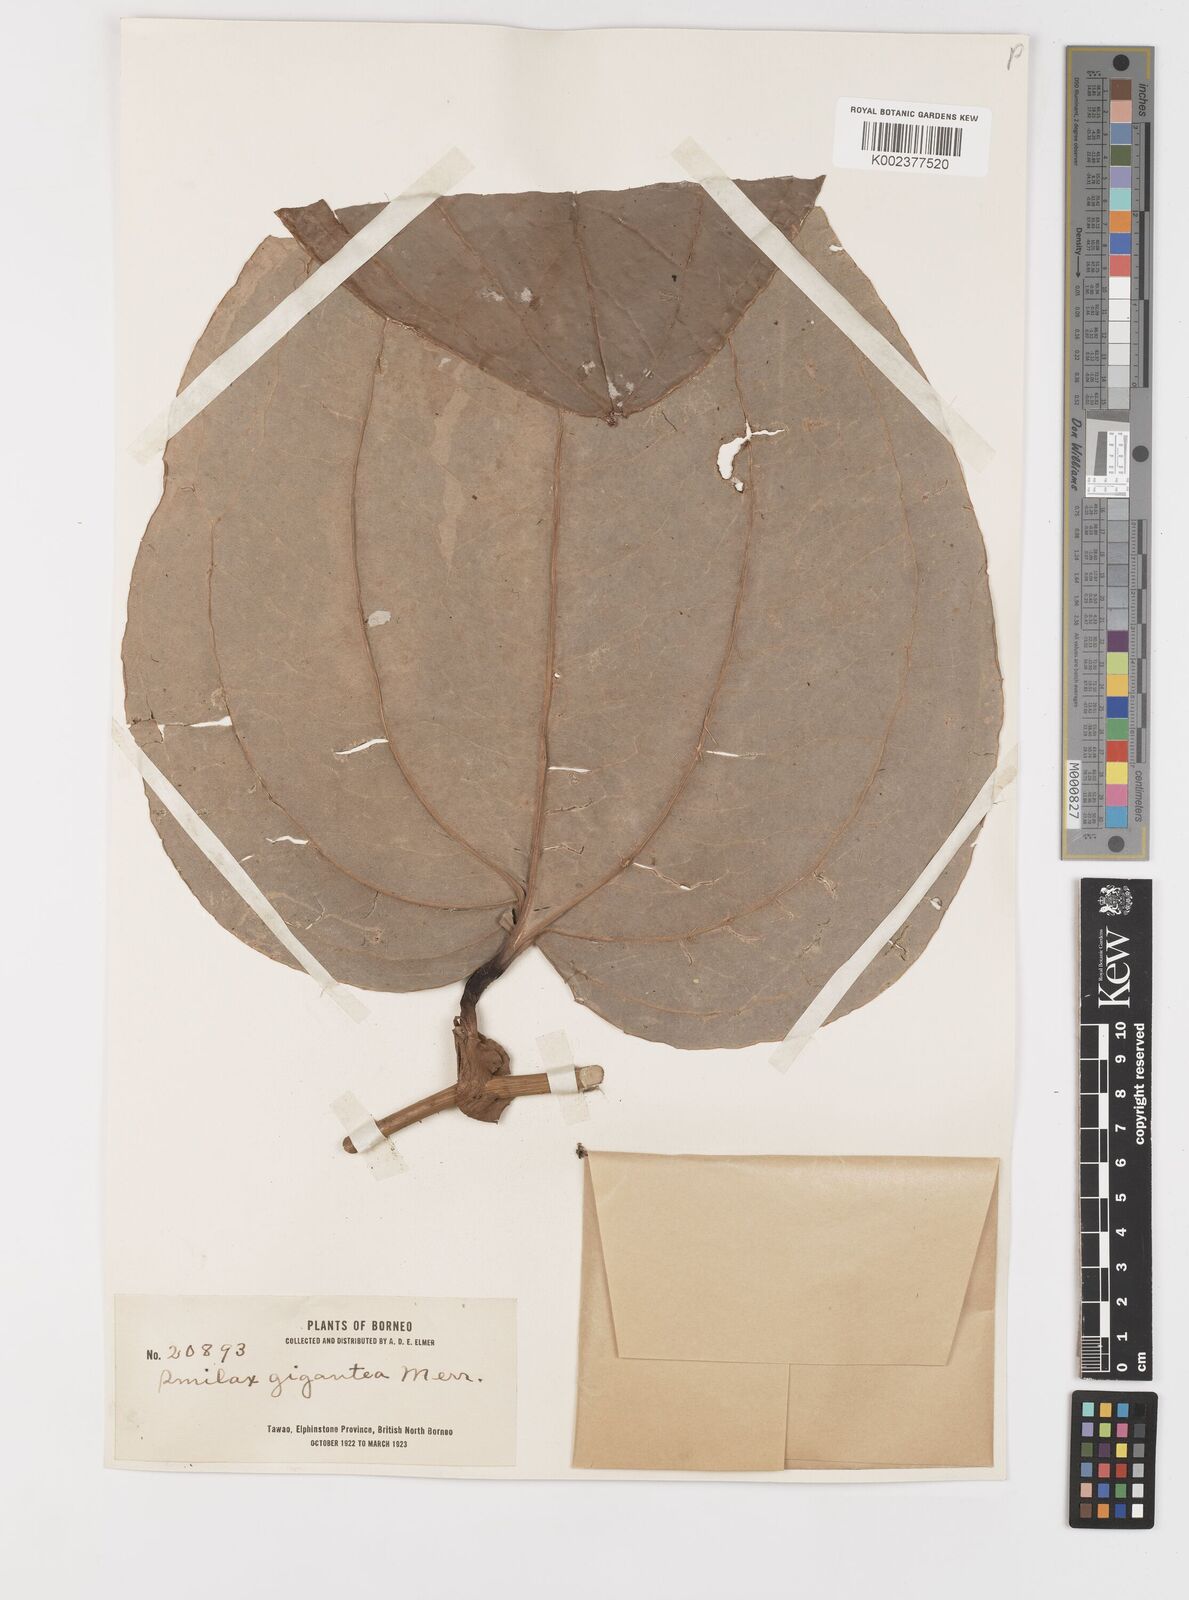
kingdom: Plantae
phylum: Tracheophyta
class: Liliopsida
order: Liliales
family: Smilacaceae
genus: Smilax
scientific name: Smilax gigantea
